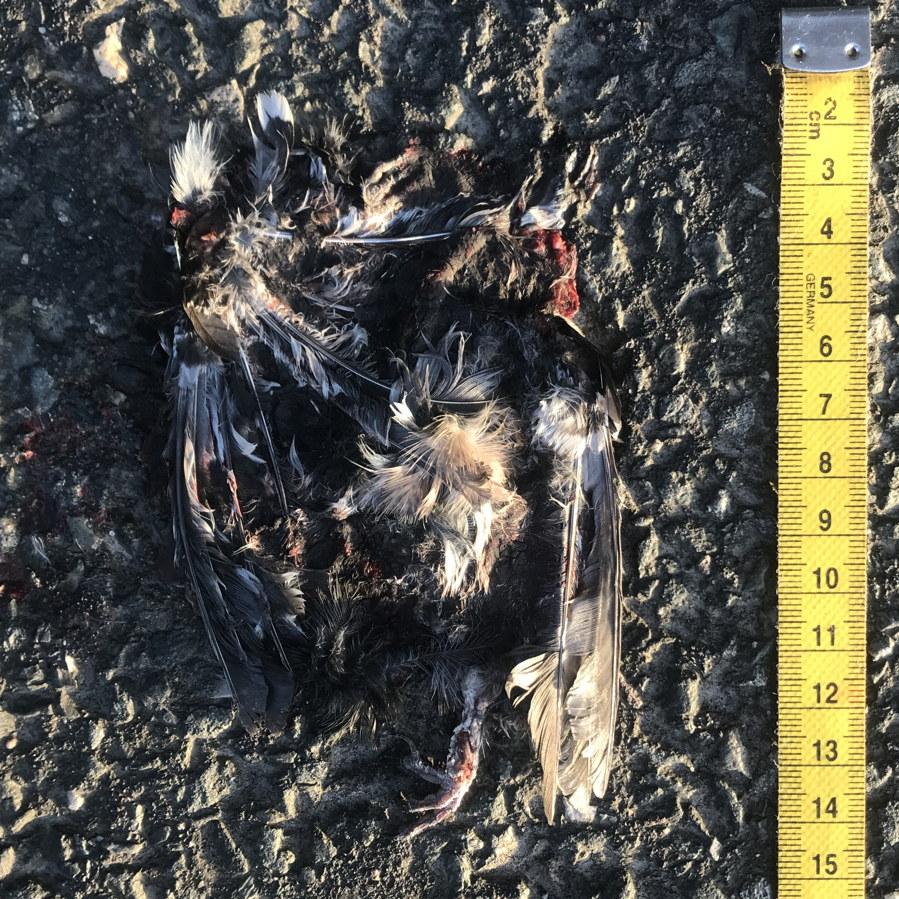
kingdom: Animalia
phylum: Chordata
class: Aves
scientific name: Aves
